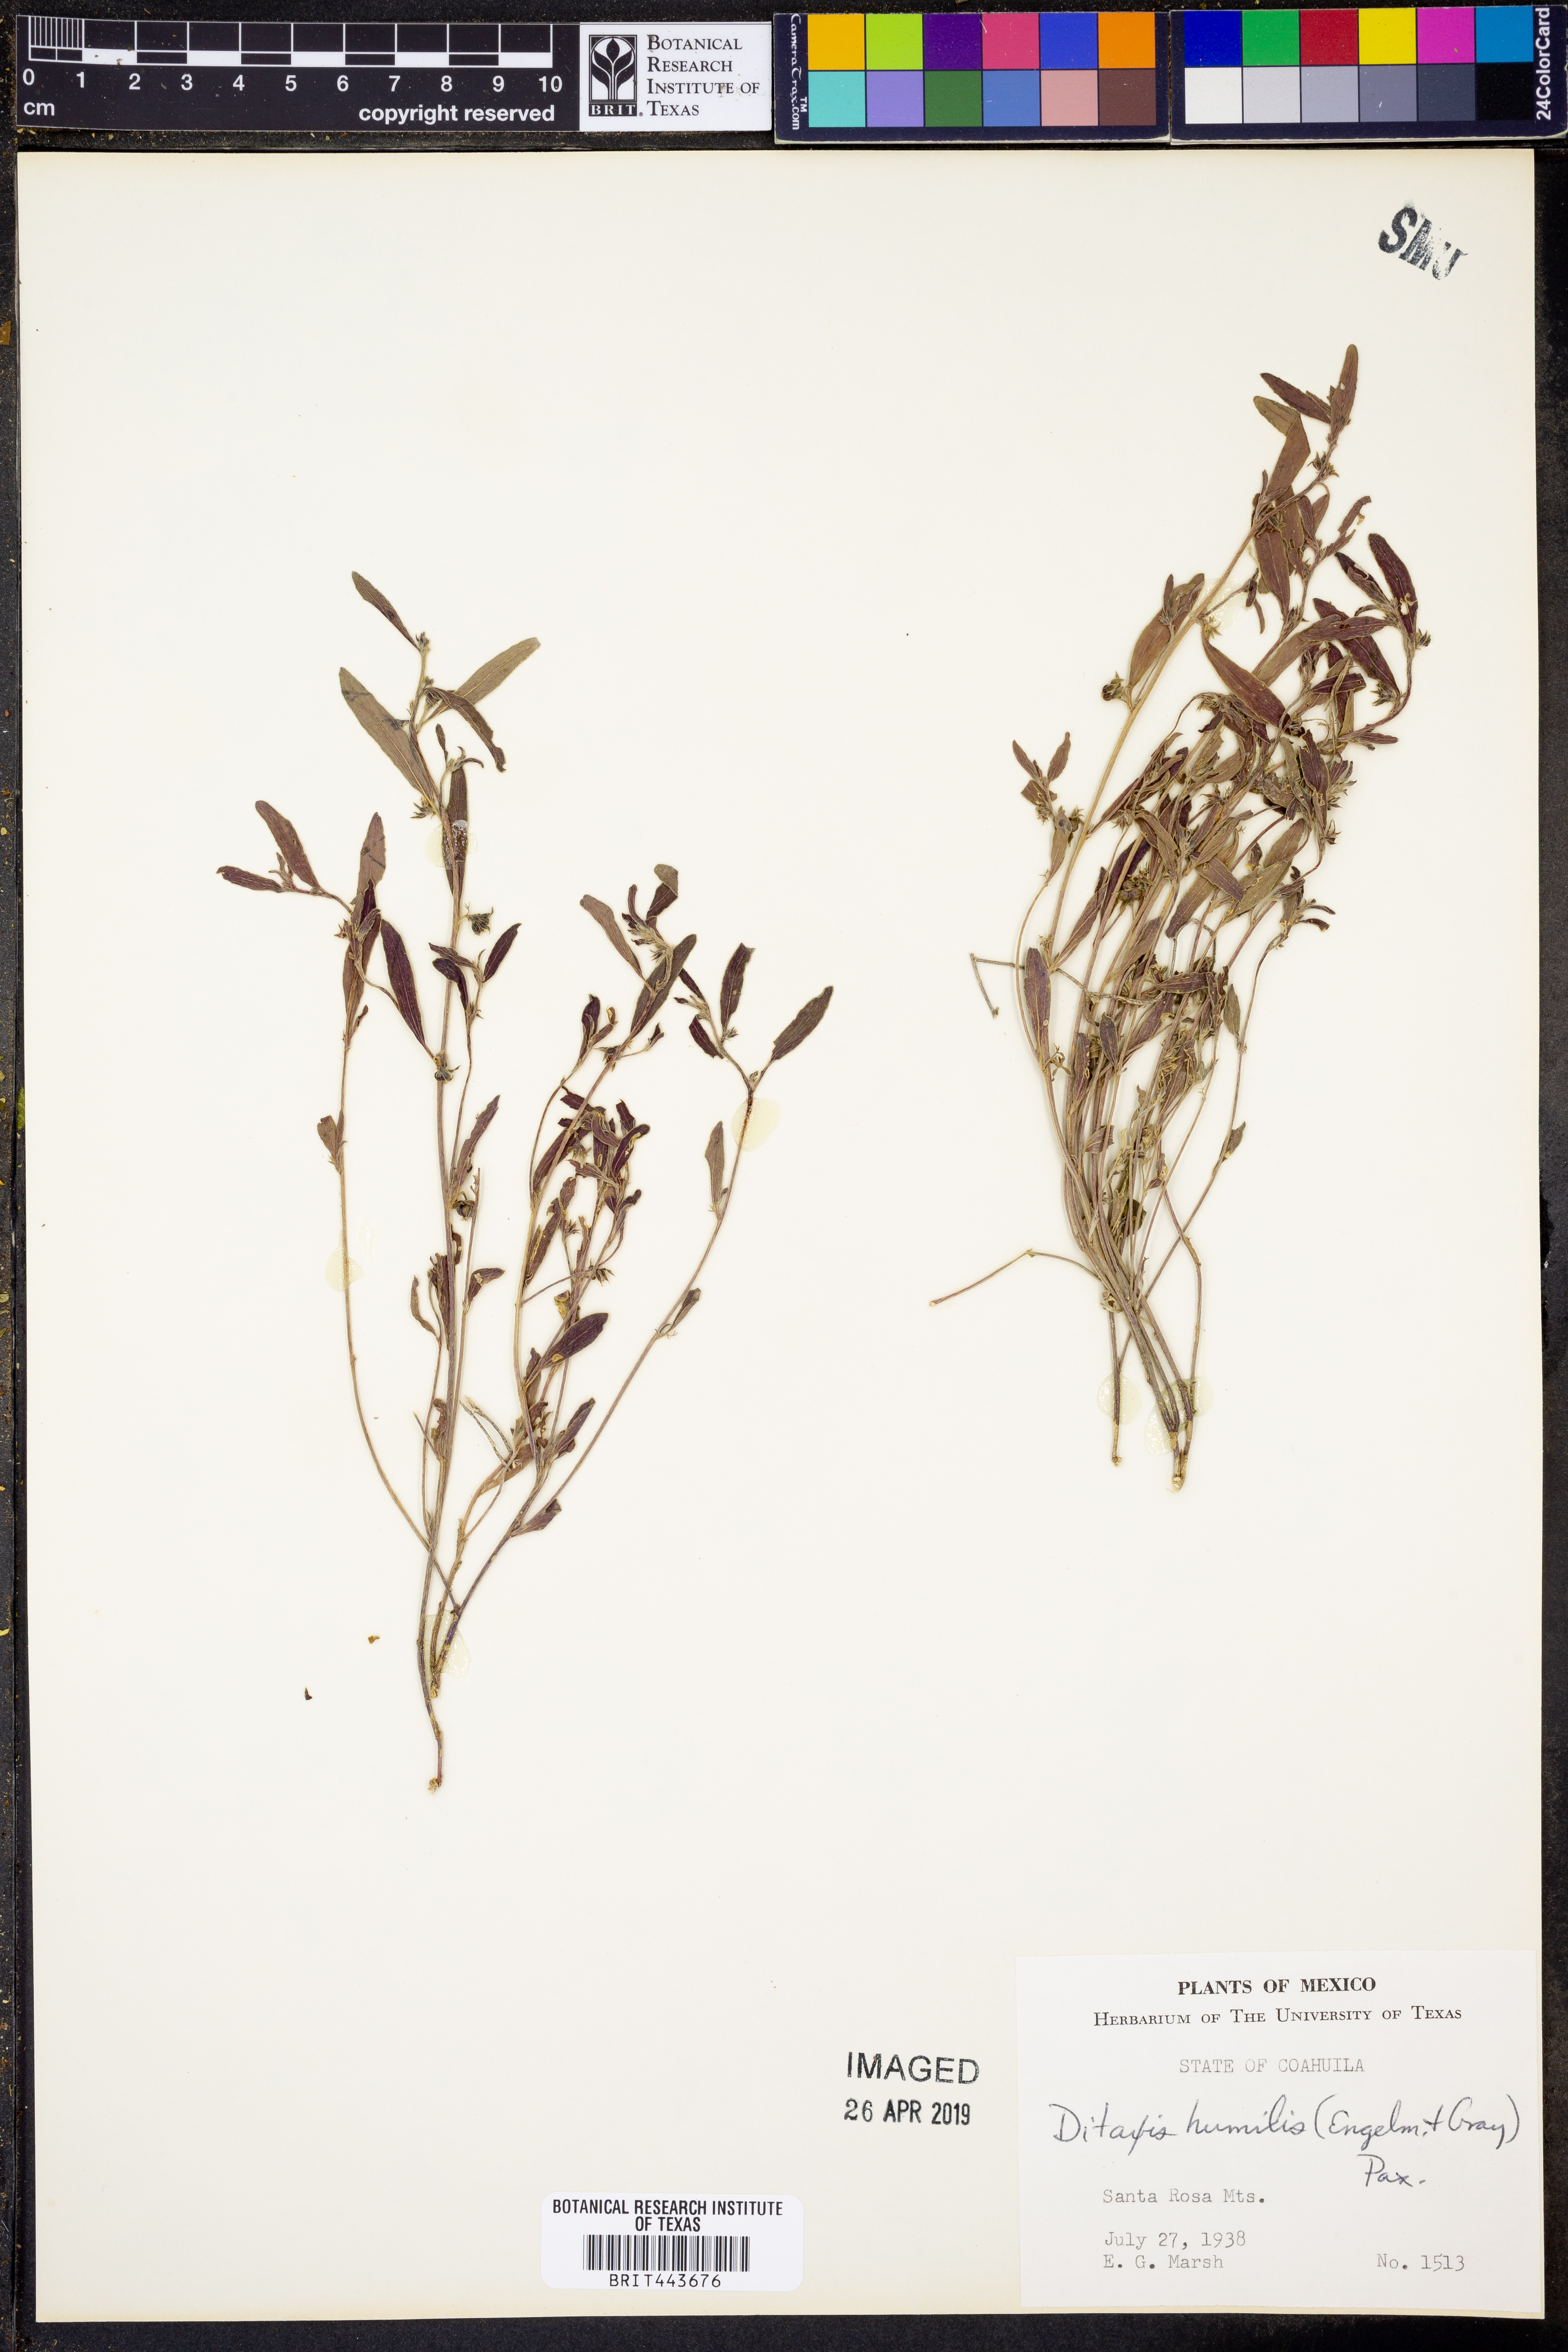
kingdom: Plantae
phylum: Tracheophyta
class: Magnoliopsida
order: Malpighiales
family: Euphorbiaceae
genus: Ditaxis
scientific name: Ditaxis humilis
